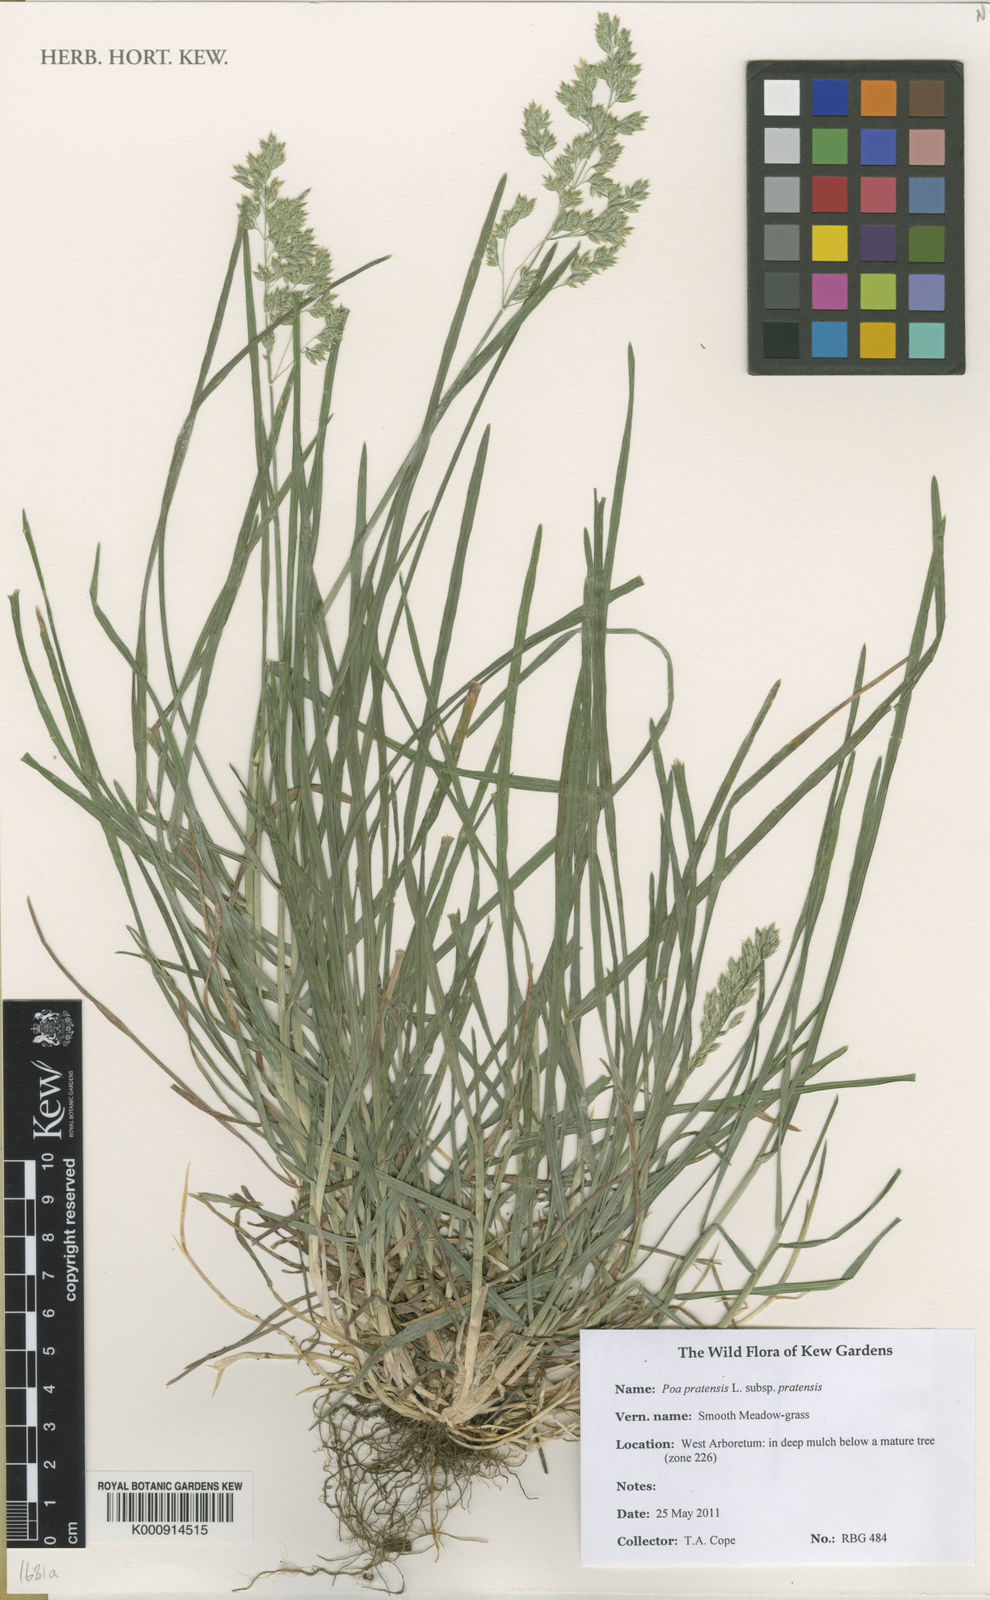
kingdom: Plantae
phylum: Tracheophyta
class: Liliopsida
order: Poales
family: Poaceae
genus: Poa
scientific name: Poa pratensis
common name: Kentucky bluegrass
